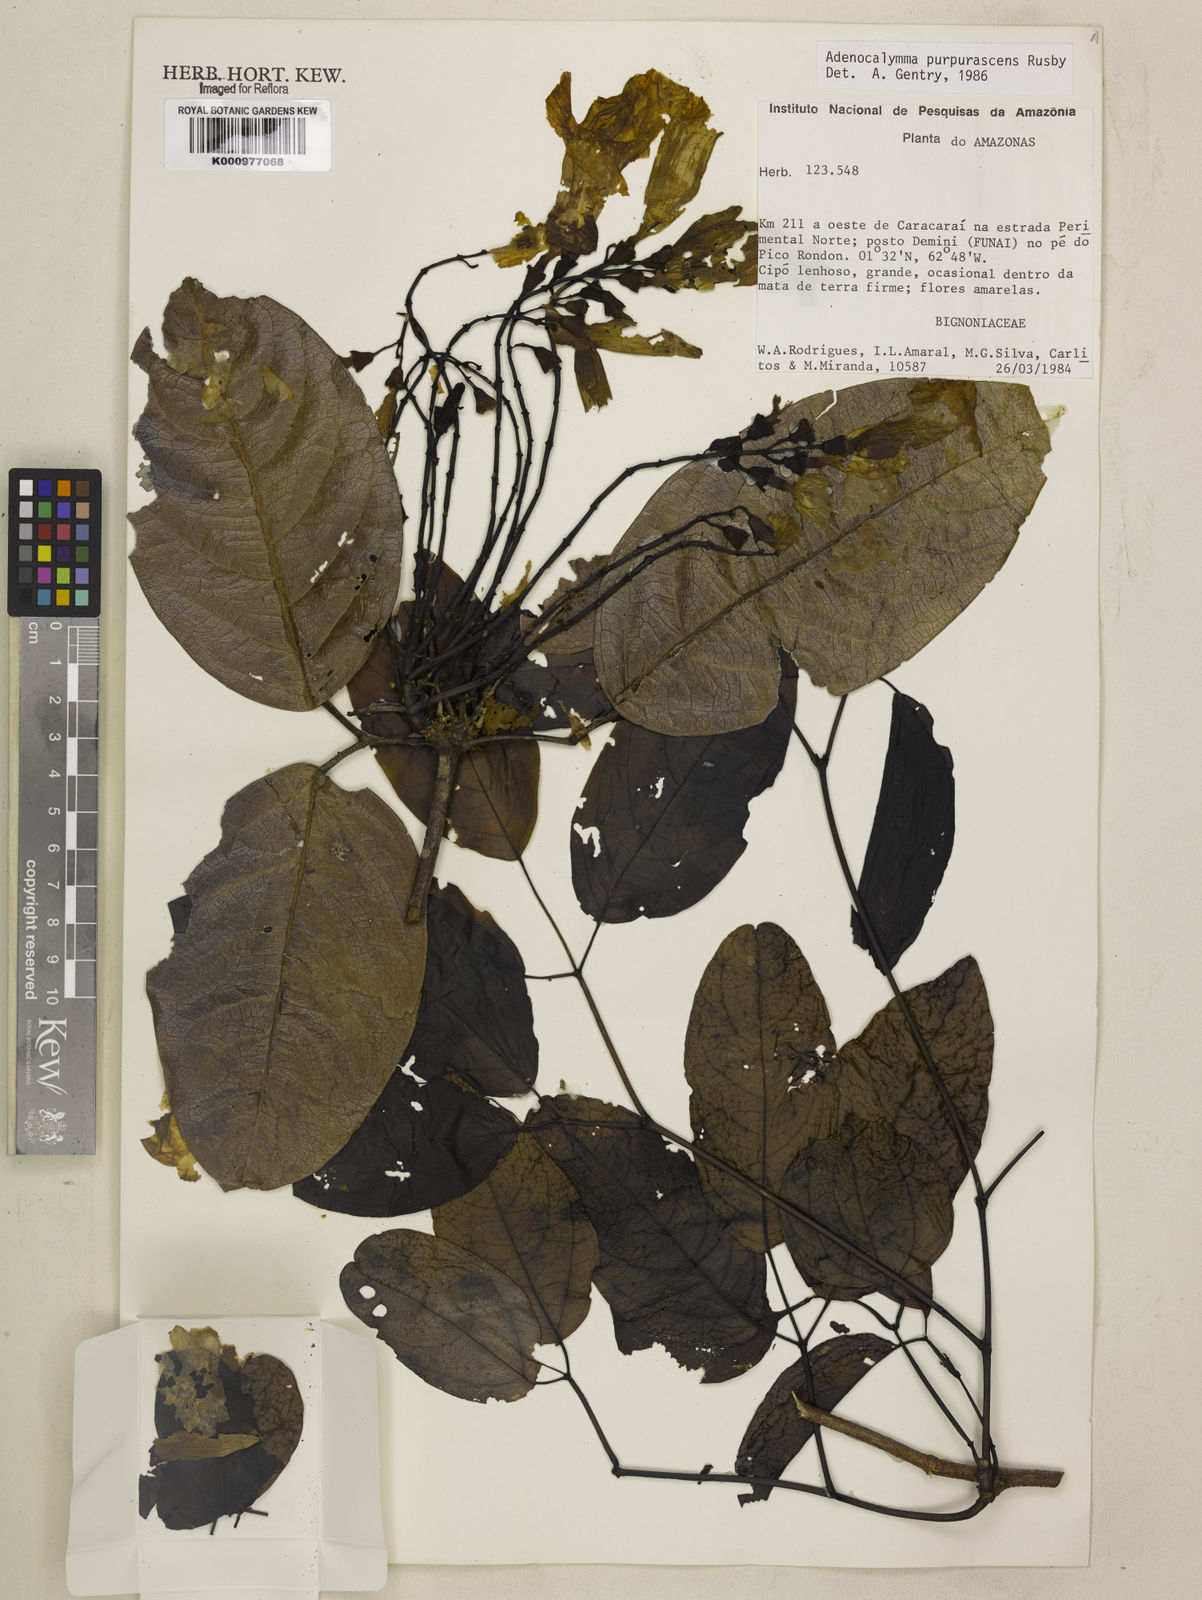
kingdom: Plantae
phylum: Tracheophyta
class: Magnoliopsida
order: Lamiales
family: Bignoniaceae
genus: Adenocalymma
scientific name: Adenocalymma purpurascens
